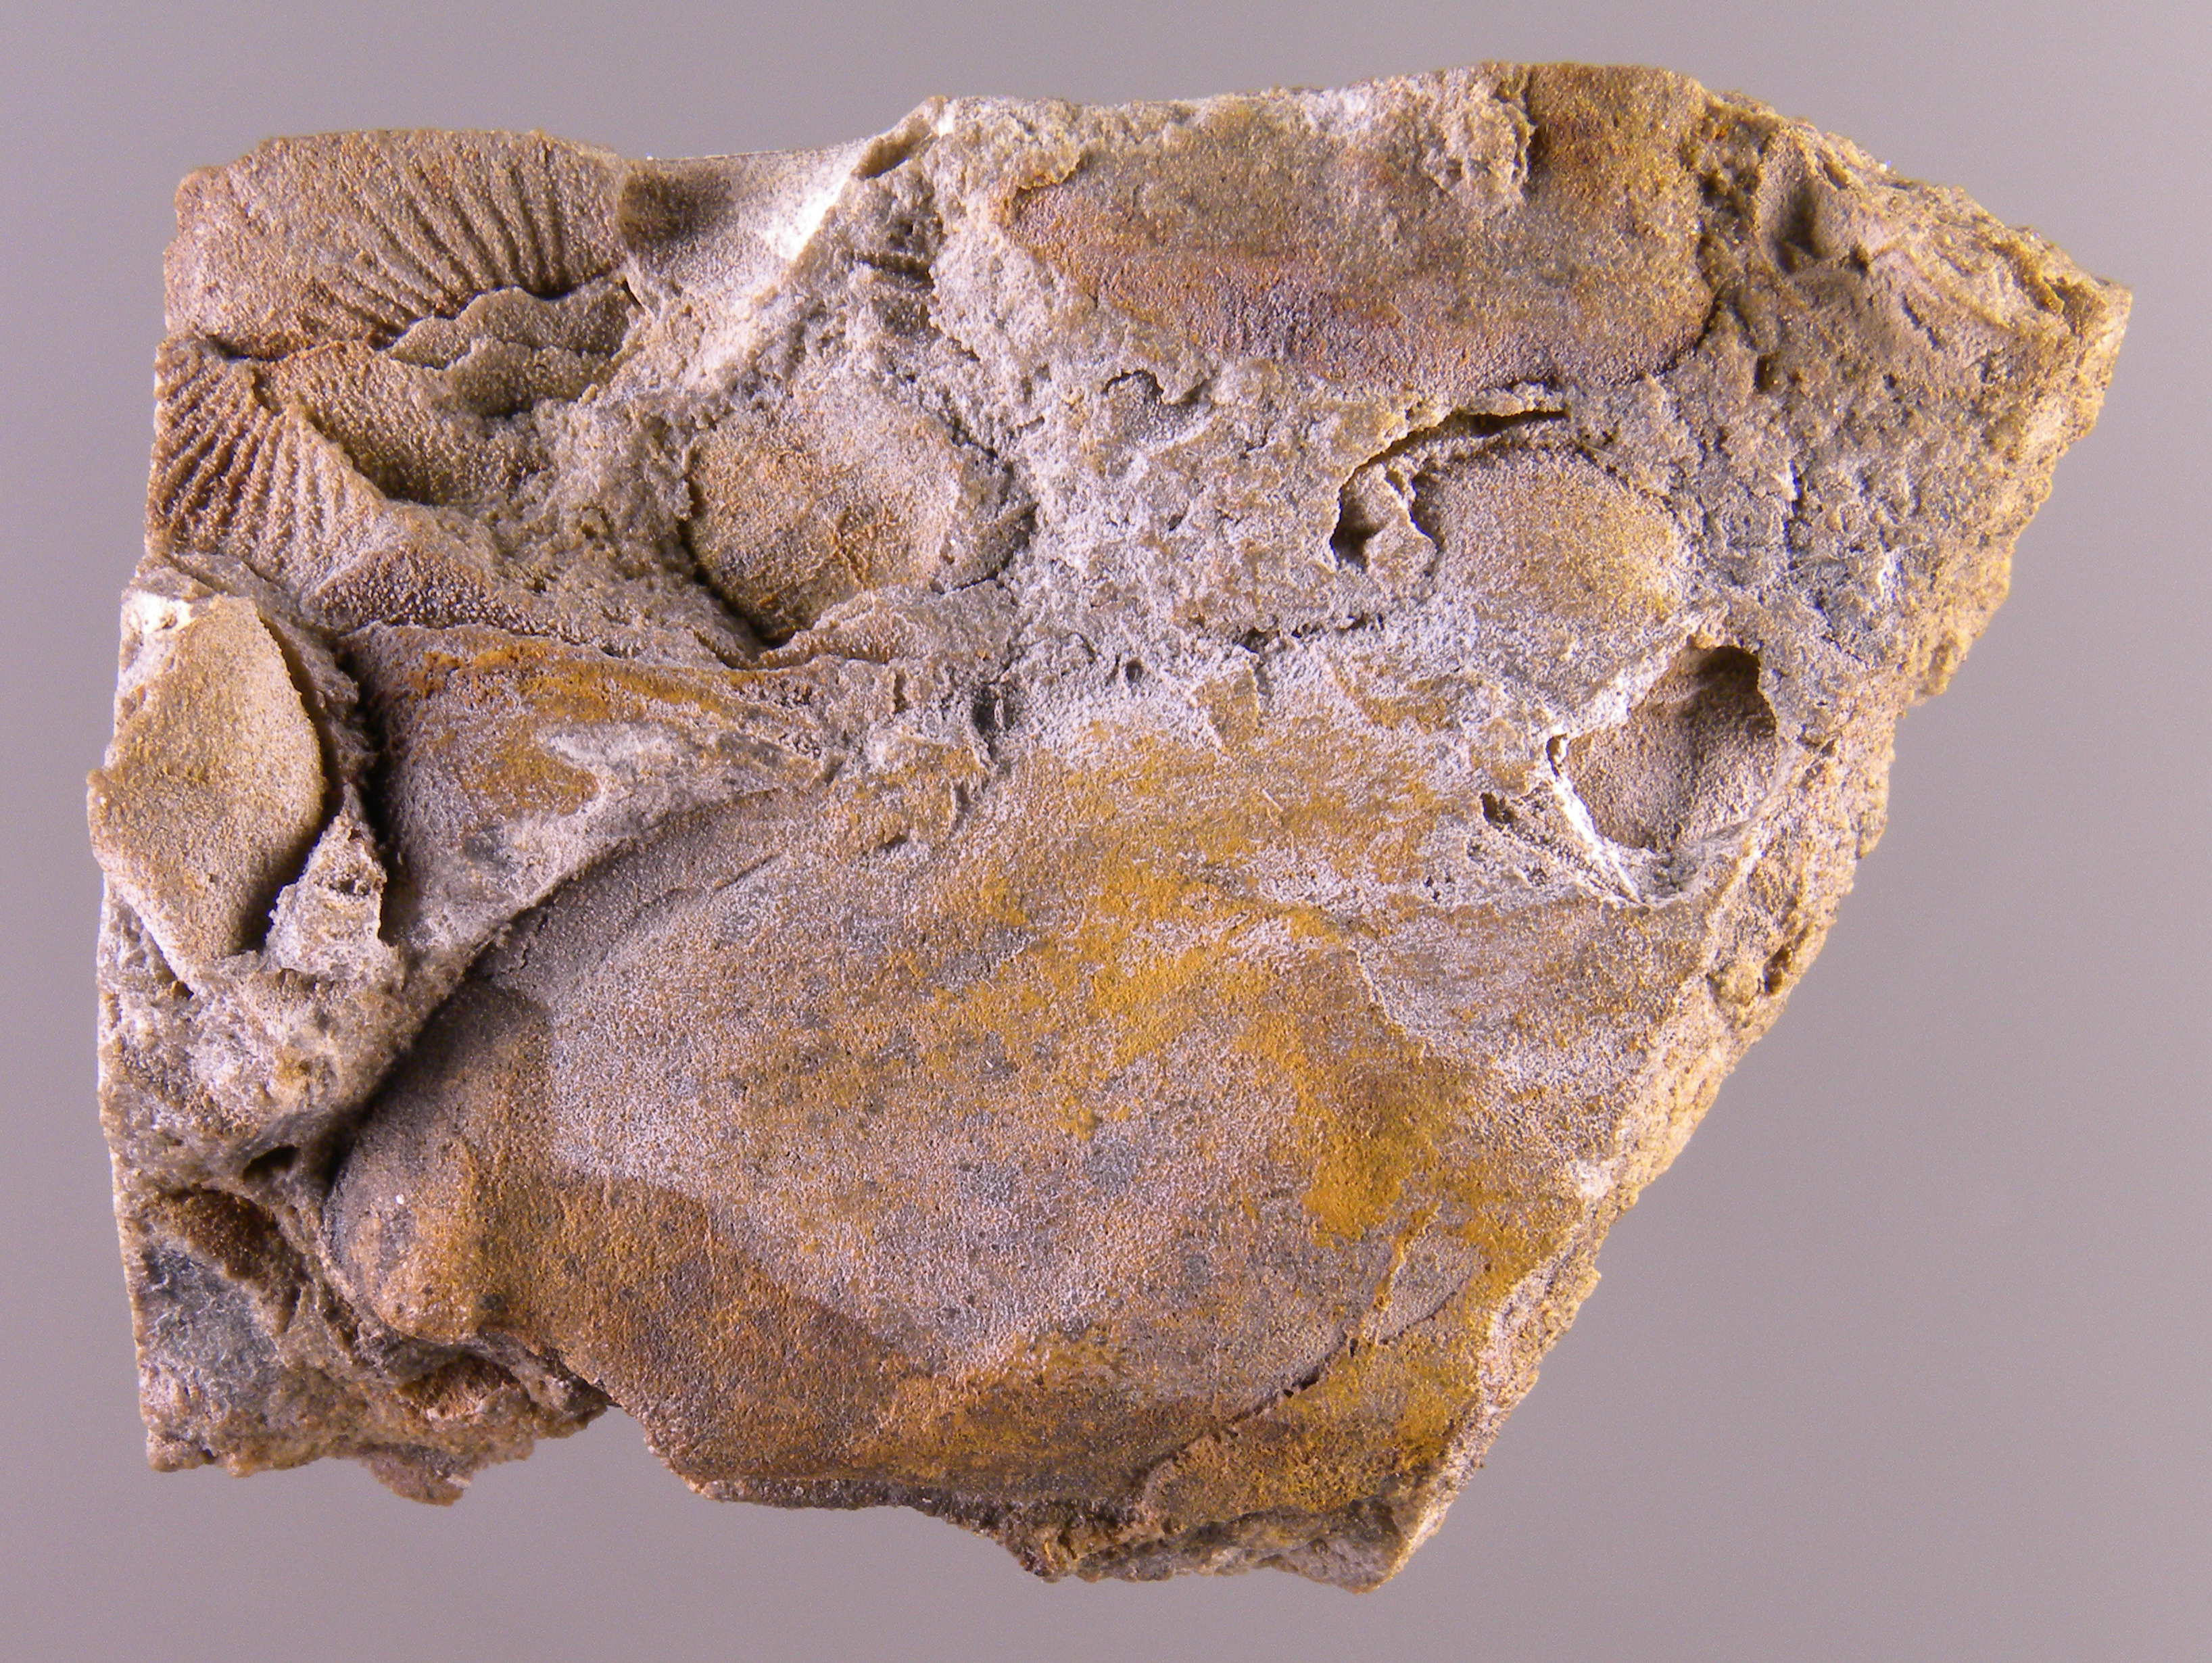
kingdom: Animalia
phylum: Mollusca
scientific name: Mollusca
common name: Mollusca
